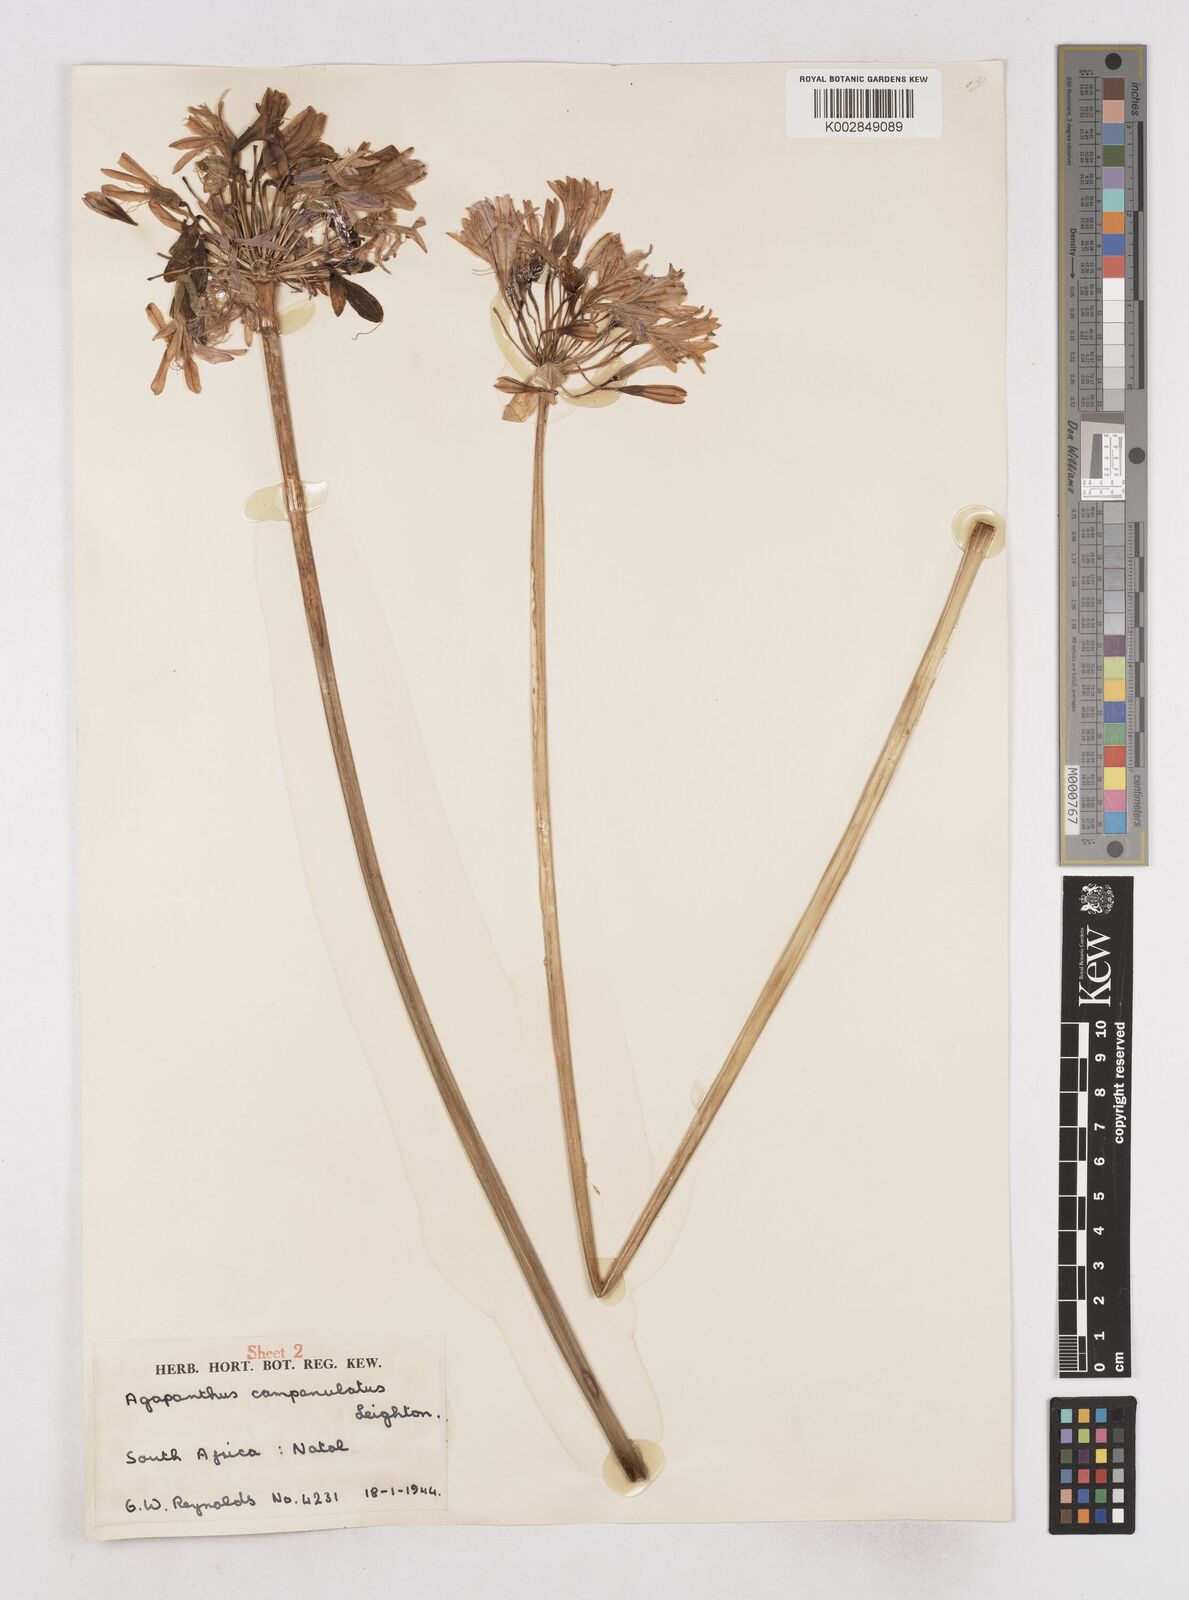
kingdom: Plantae
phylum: Tracheophyta
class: Liliopsida
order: Asparagales
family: Amaryllidaceae
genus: Agapanthus
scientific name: Agapanthus campanulatus
